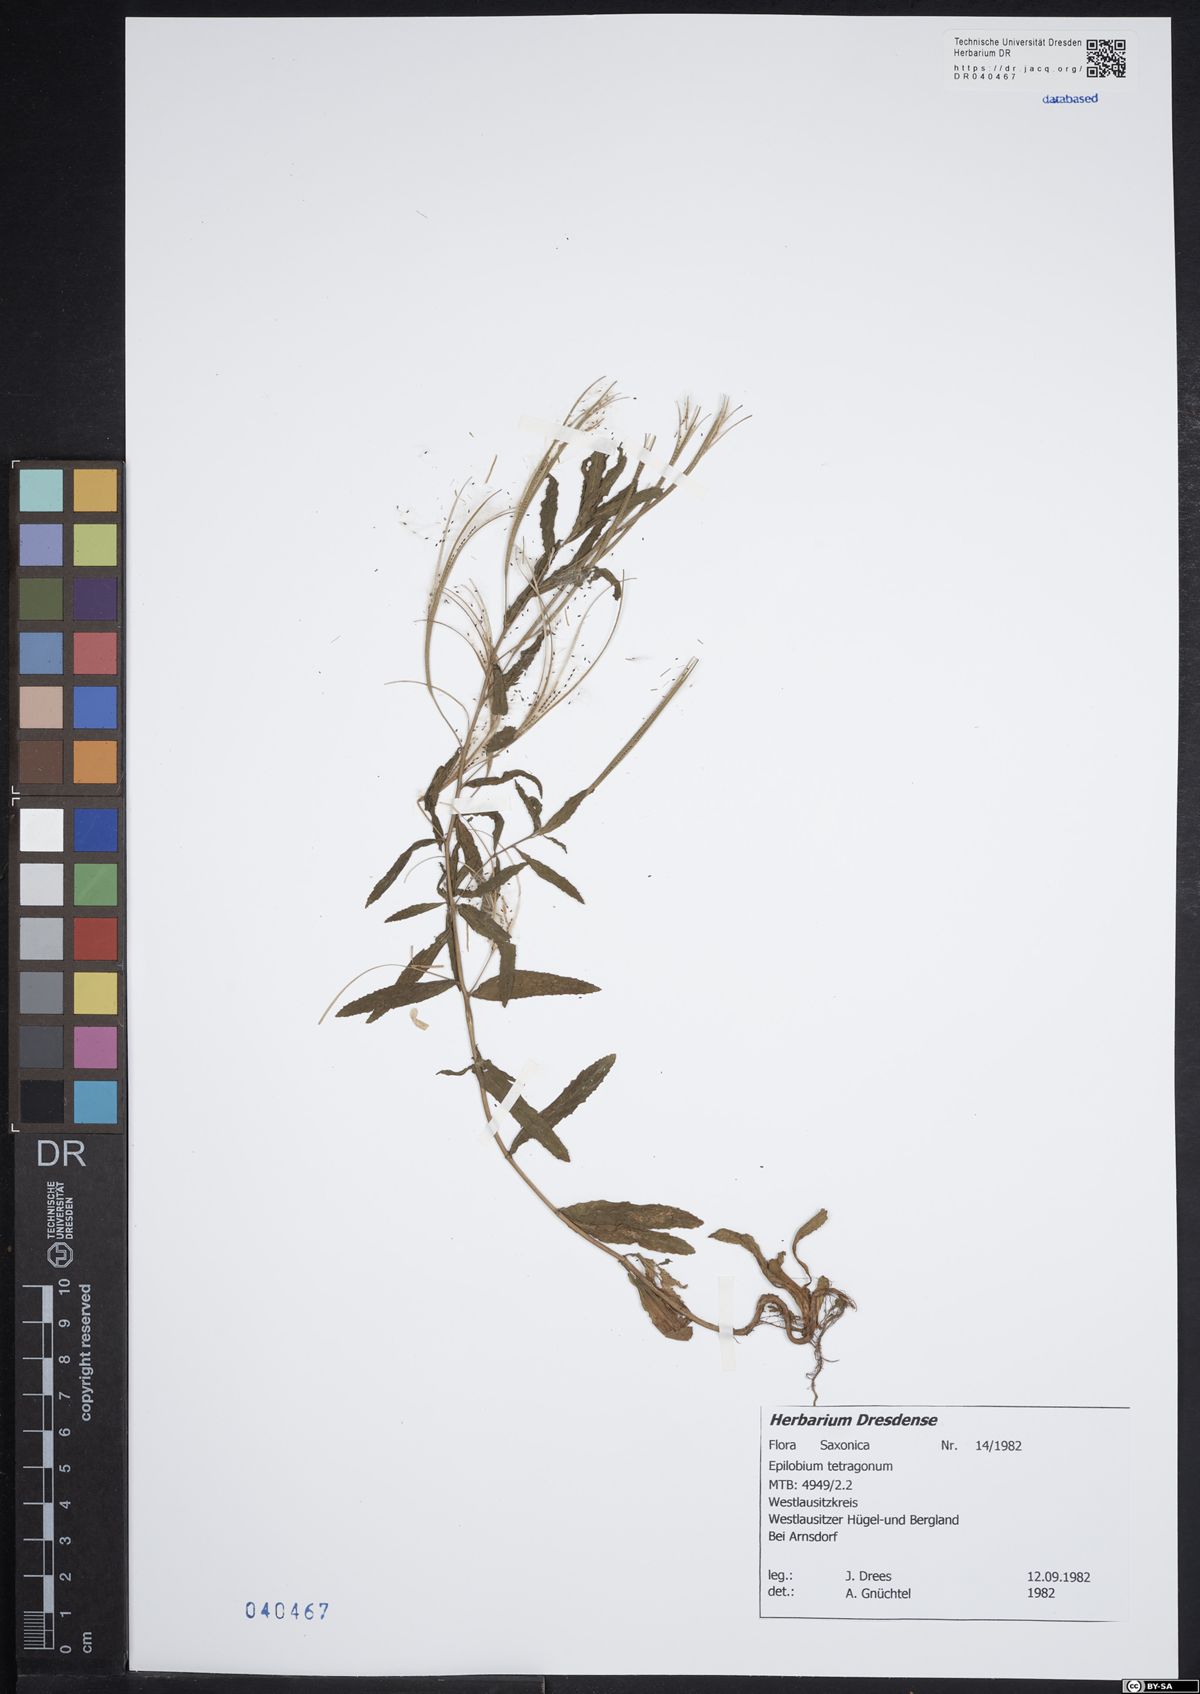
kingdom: Plantae
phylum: Tracheophyta
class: Magnoliopsida
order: Myrtales
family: Onagraceae
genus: Epilobium
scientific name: Epilobium tetragonum
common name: Square-stemmed willowherb
